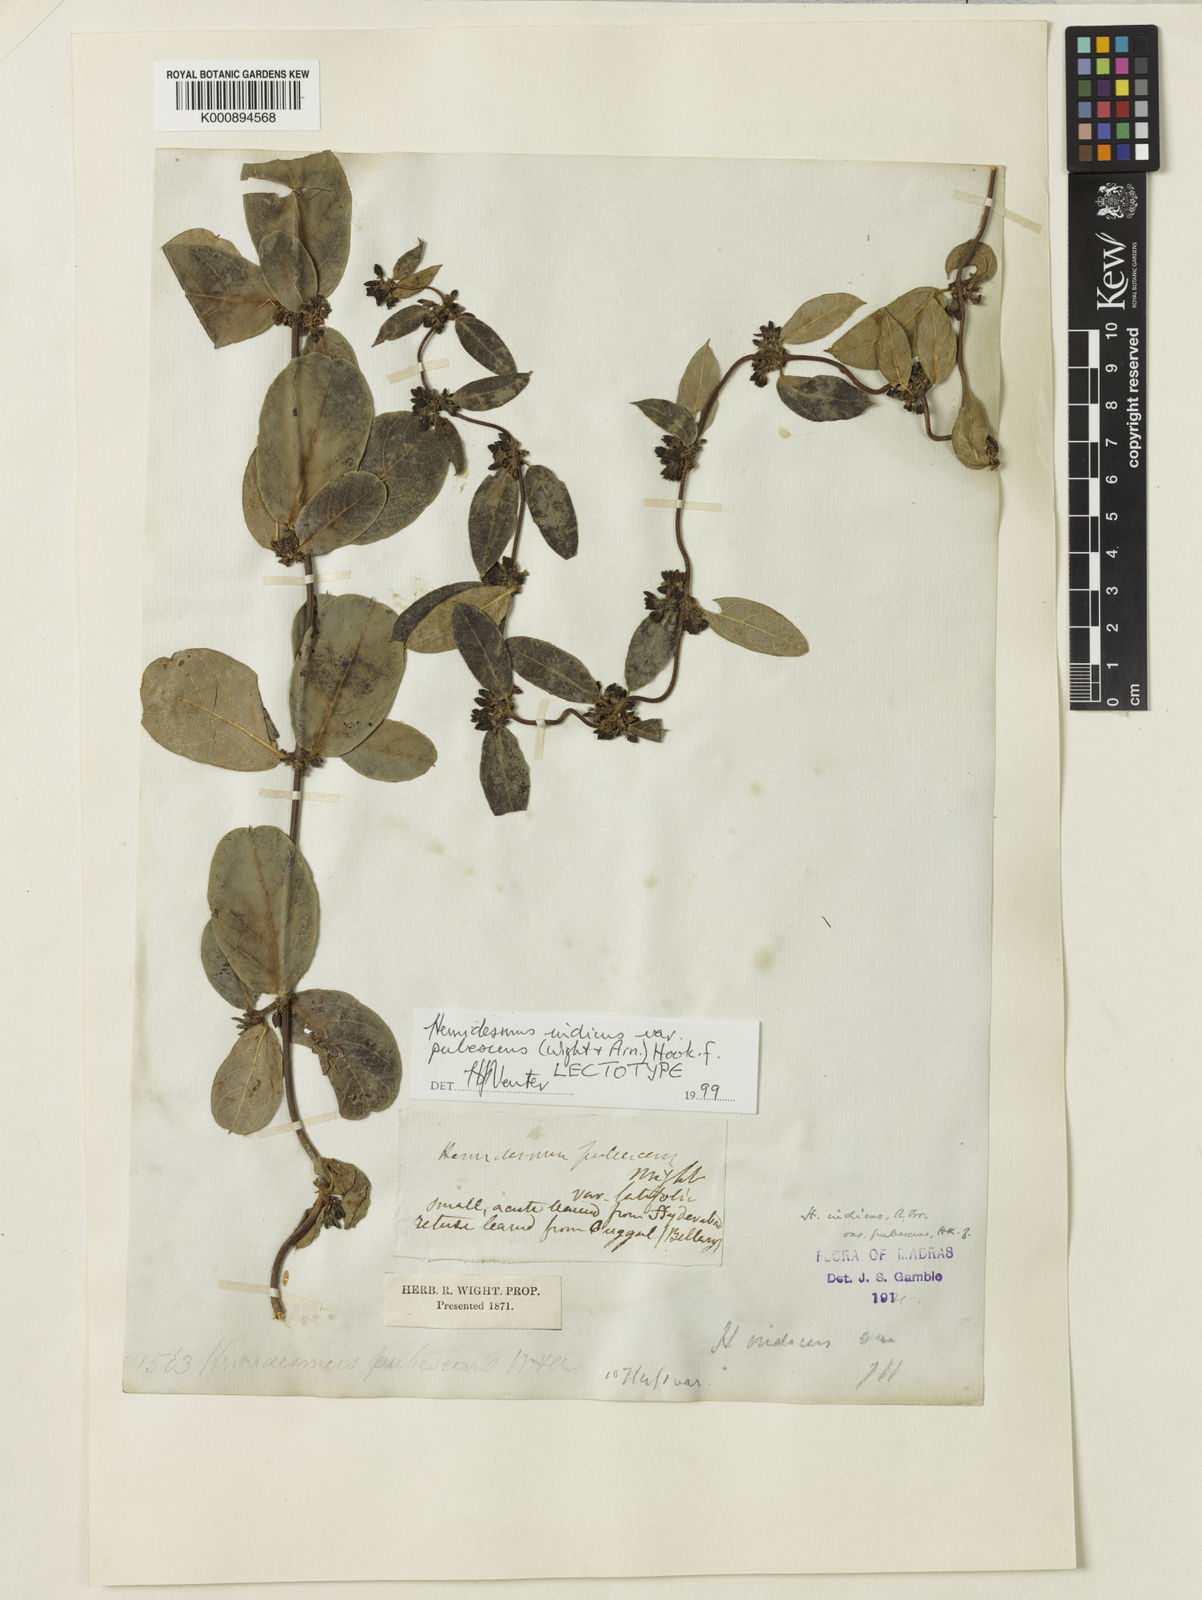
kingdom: Plantae
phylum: Tracheophyta
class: Magnoliopsida
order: Gentianales
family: Apocynaceae
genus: Hemidesmus
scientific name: Hemidesmus
